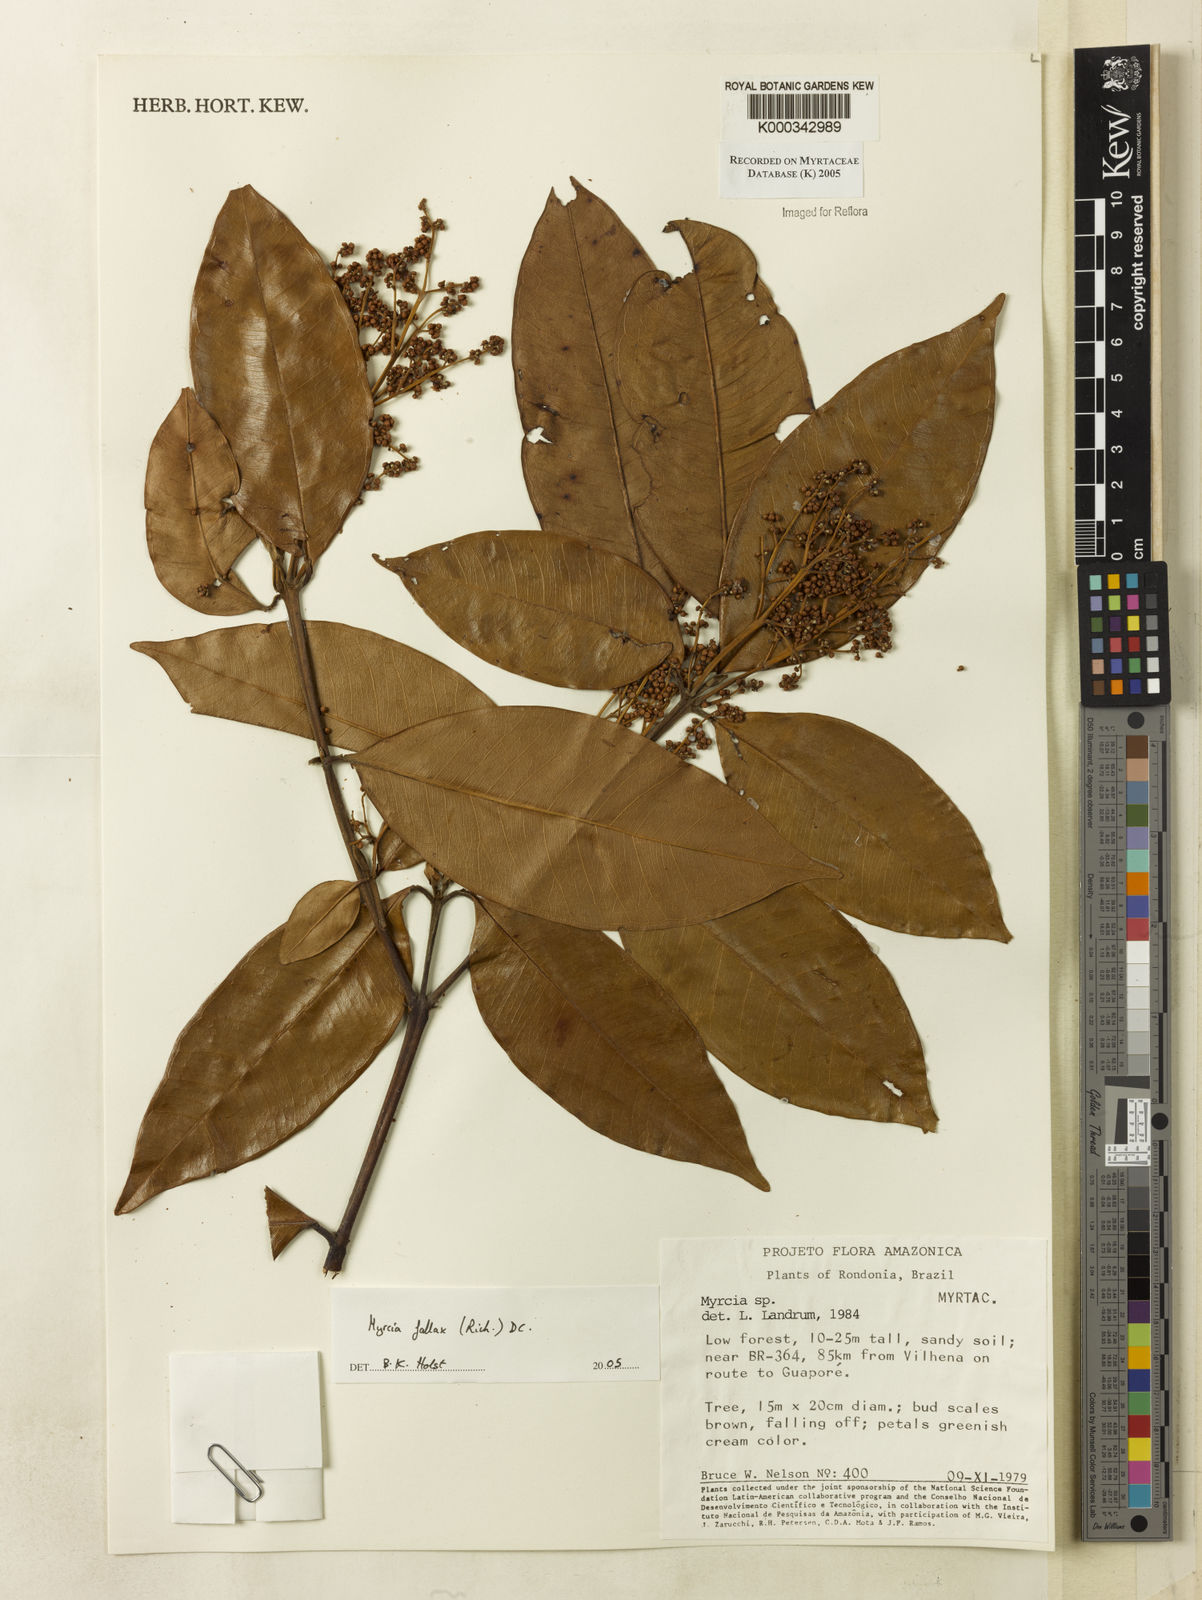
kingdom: Plantae
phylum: Tracheophyta
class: Magnoliopsida
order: Myrtales
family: Myrtaceae
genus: Myrcia
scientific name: Myrcia splendens
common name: Surinam cherry
